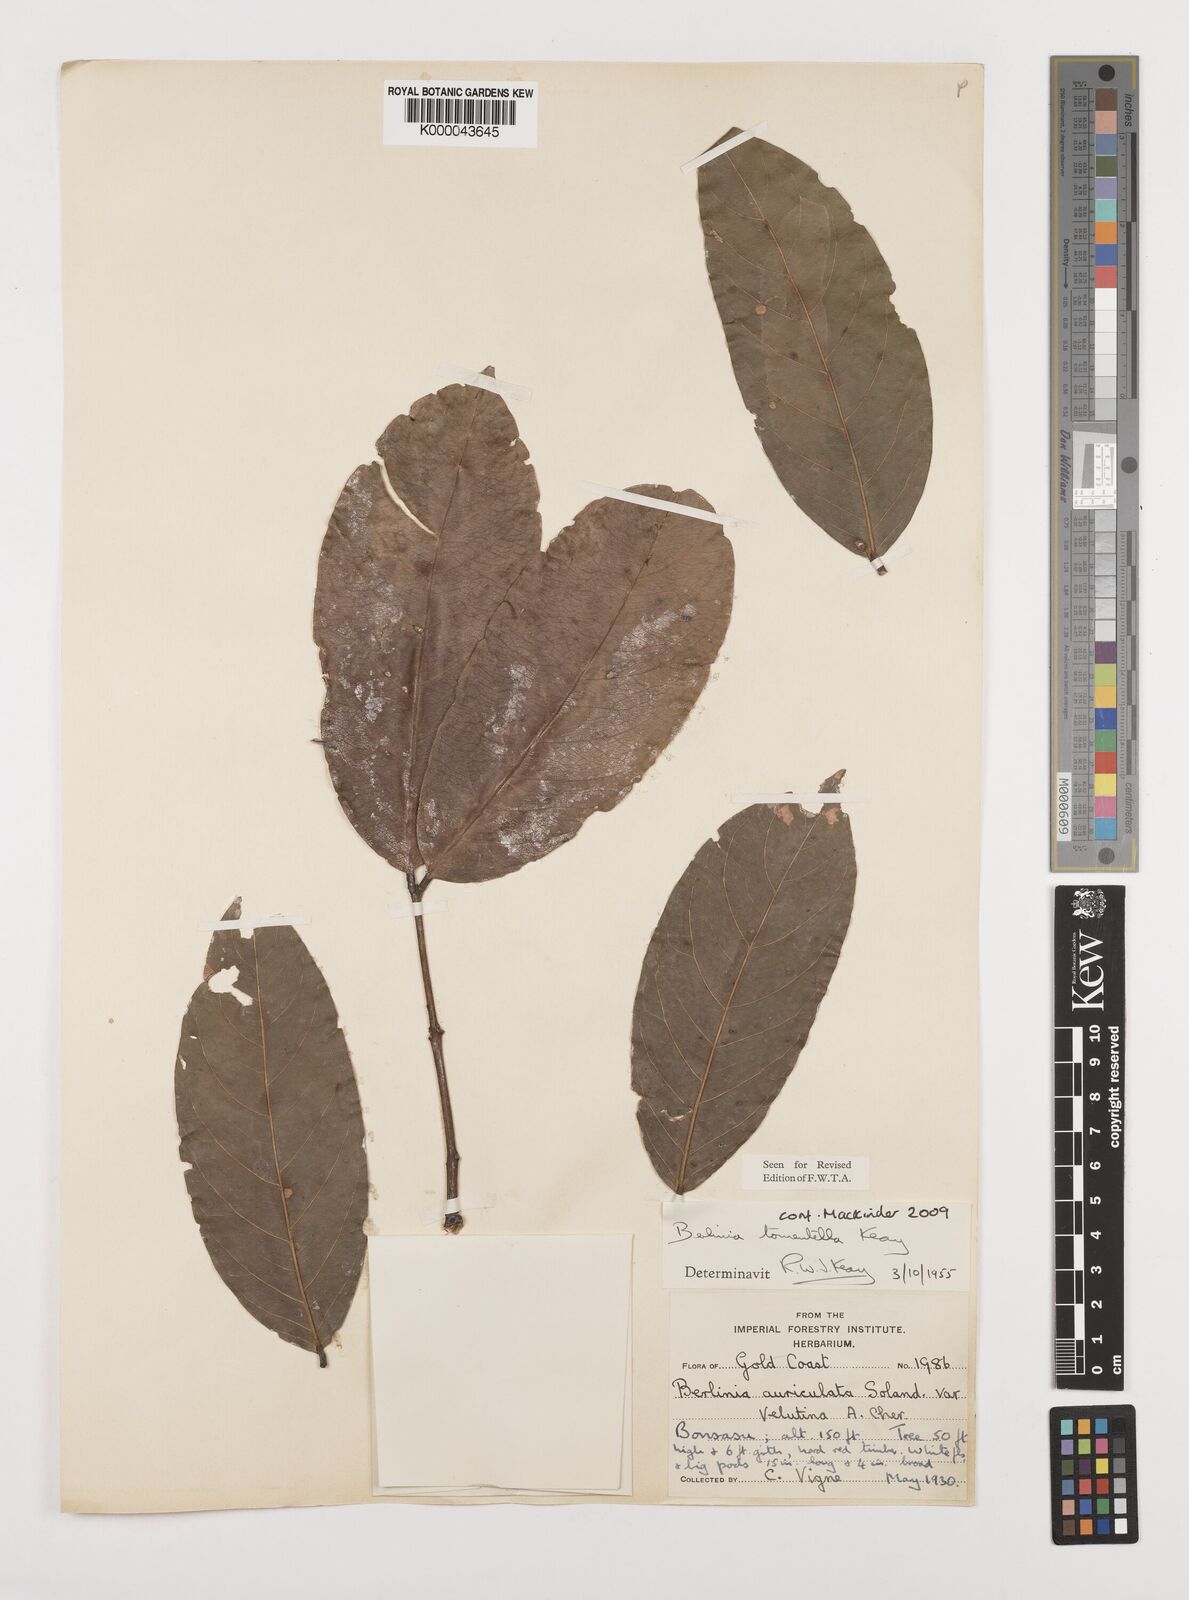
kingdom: Plantae
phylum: Tracheophyta
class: Magnoliopsida
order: Fabales
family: Fabaceae
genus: Berlinia
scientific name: Berlinia tomentella
